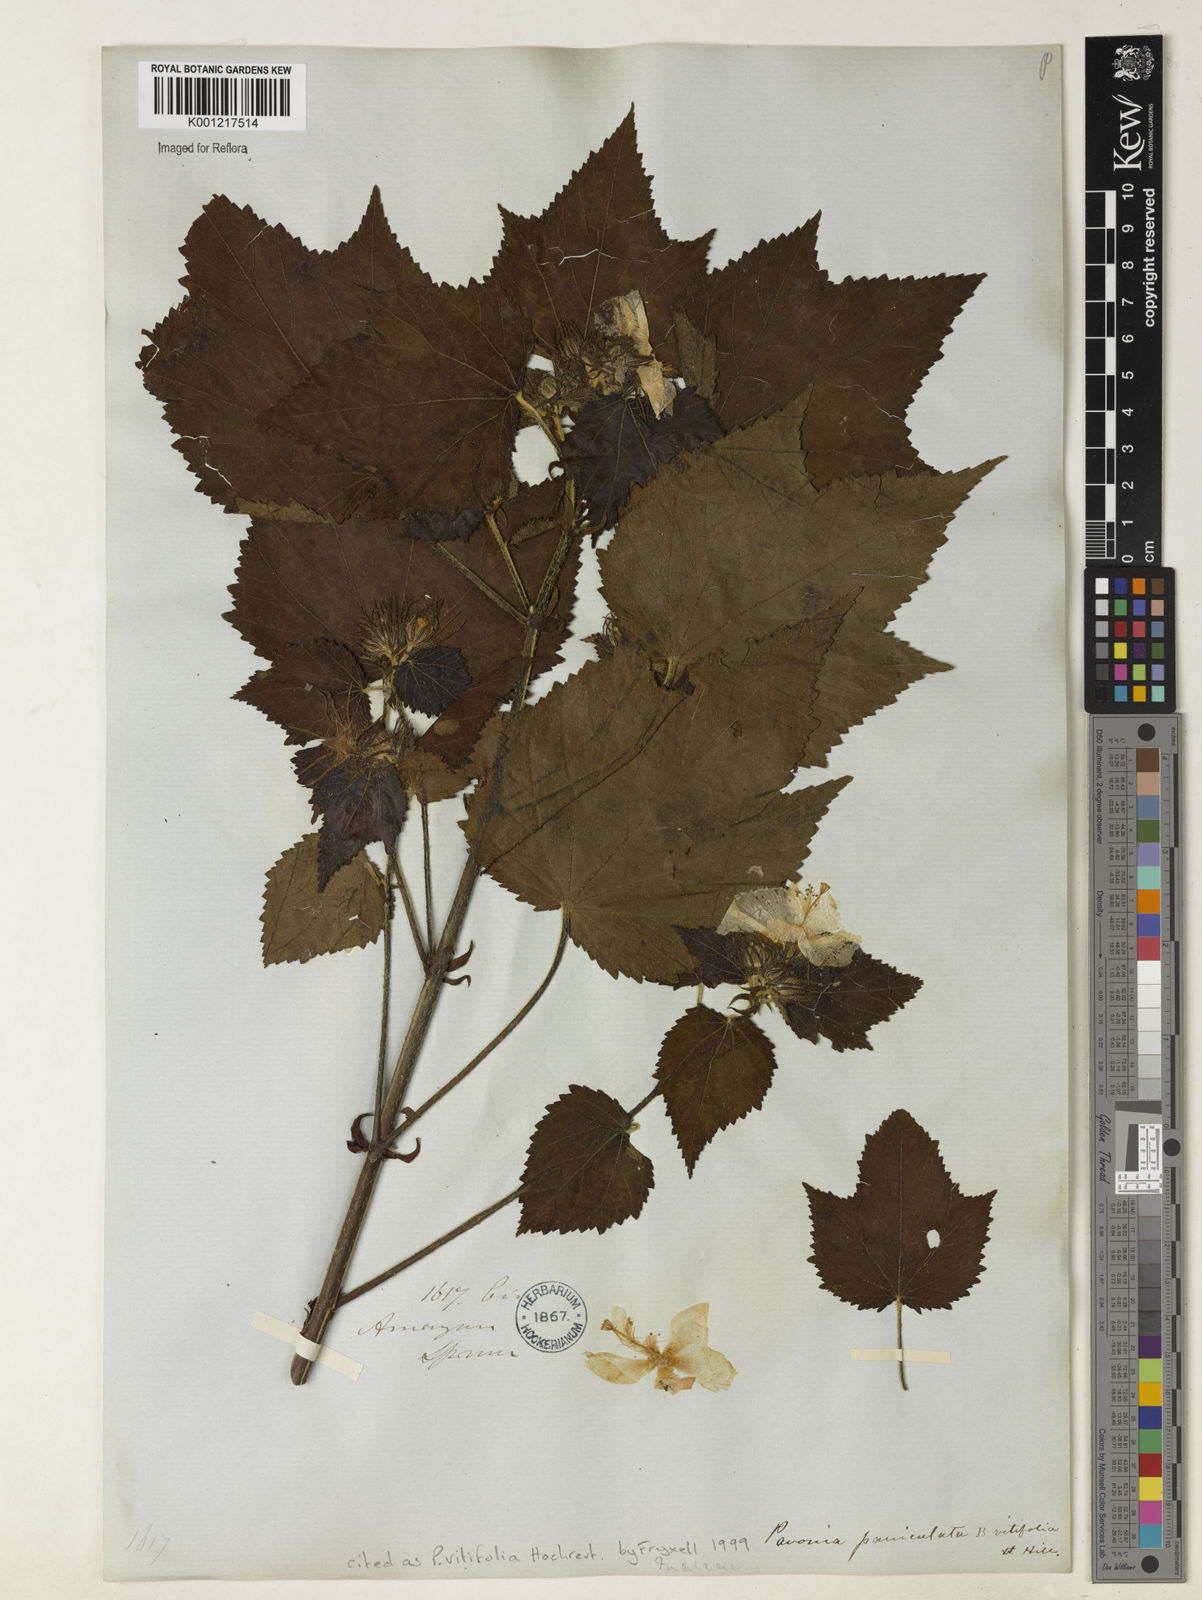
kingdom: Plantae
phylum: Tracheophyta
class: Magnoliopsida
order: Malvales
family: Malvaceae
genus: Pavonia
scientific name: Pavonia
